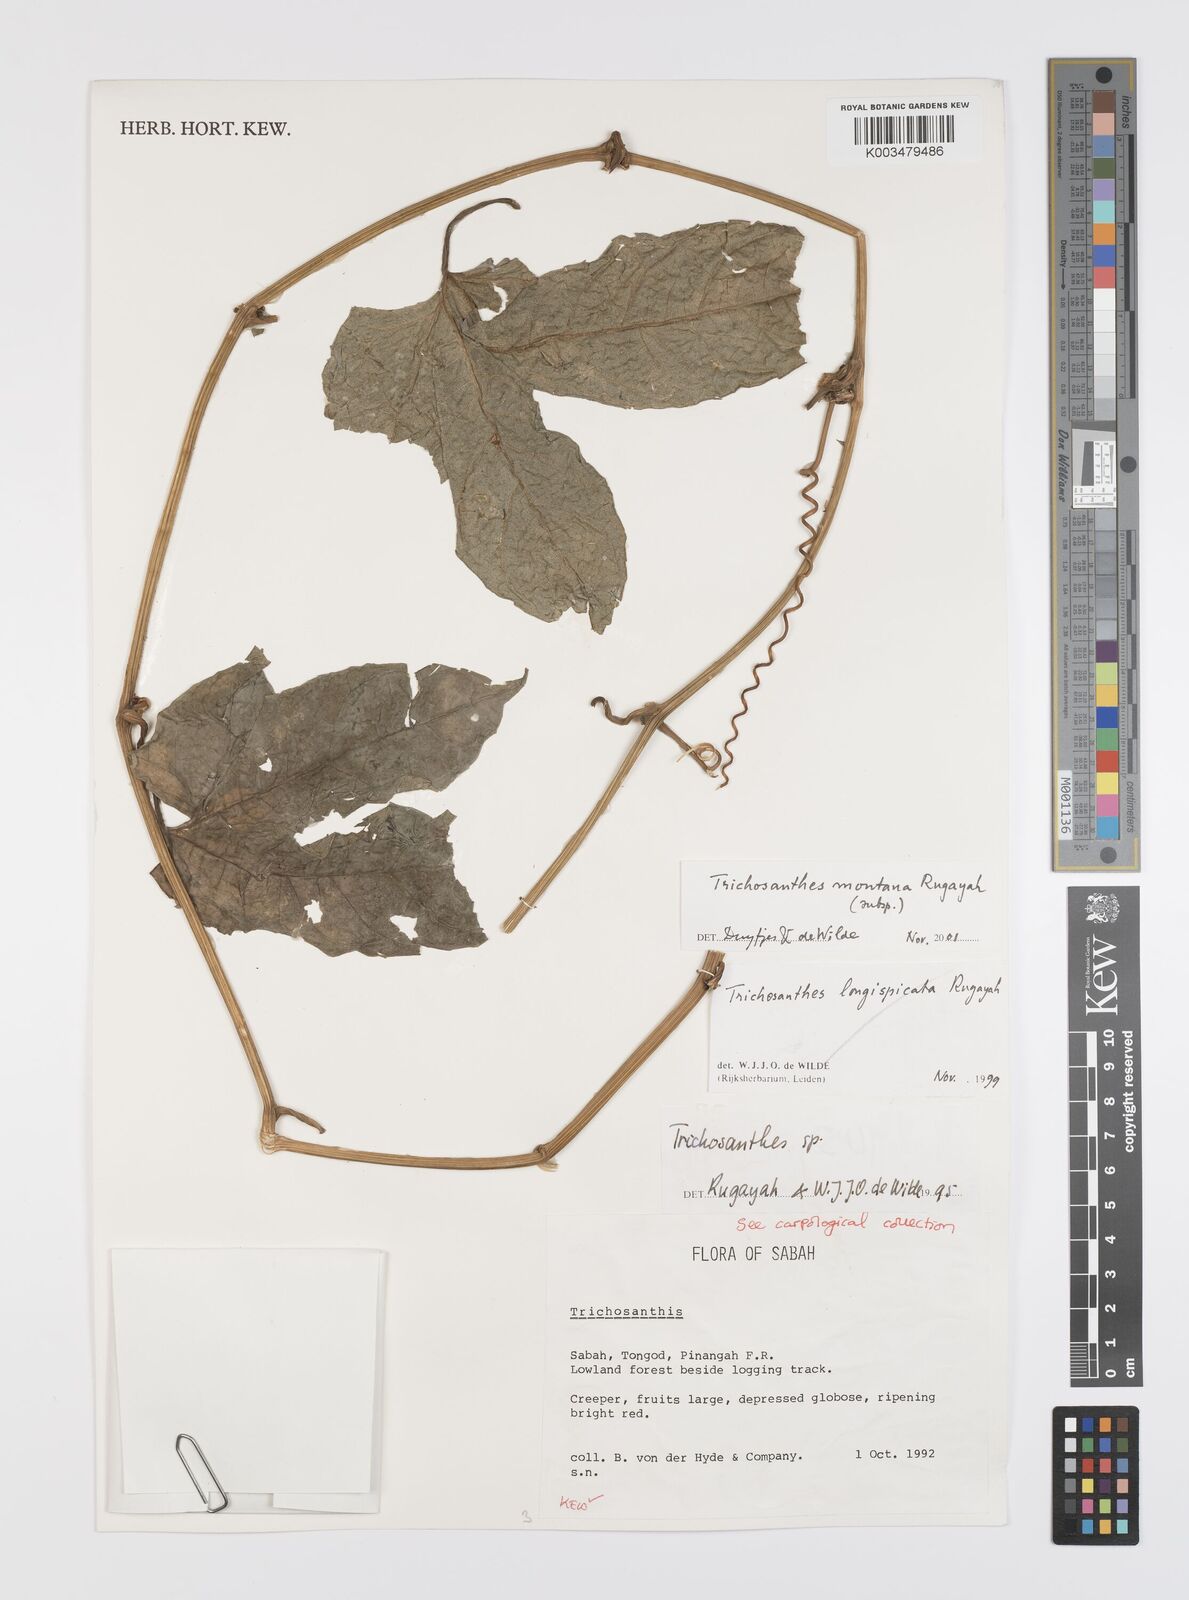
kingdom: Plantae
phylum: Tracheophyta
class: Magnoliopsida
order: Cucurbitales
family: Cucurbitaceae
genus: Trichosanthes
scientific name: Trichosanthes montana
